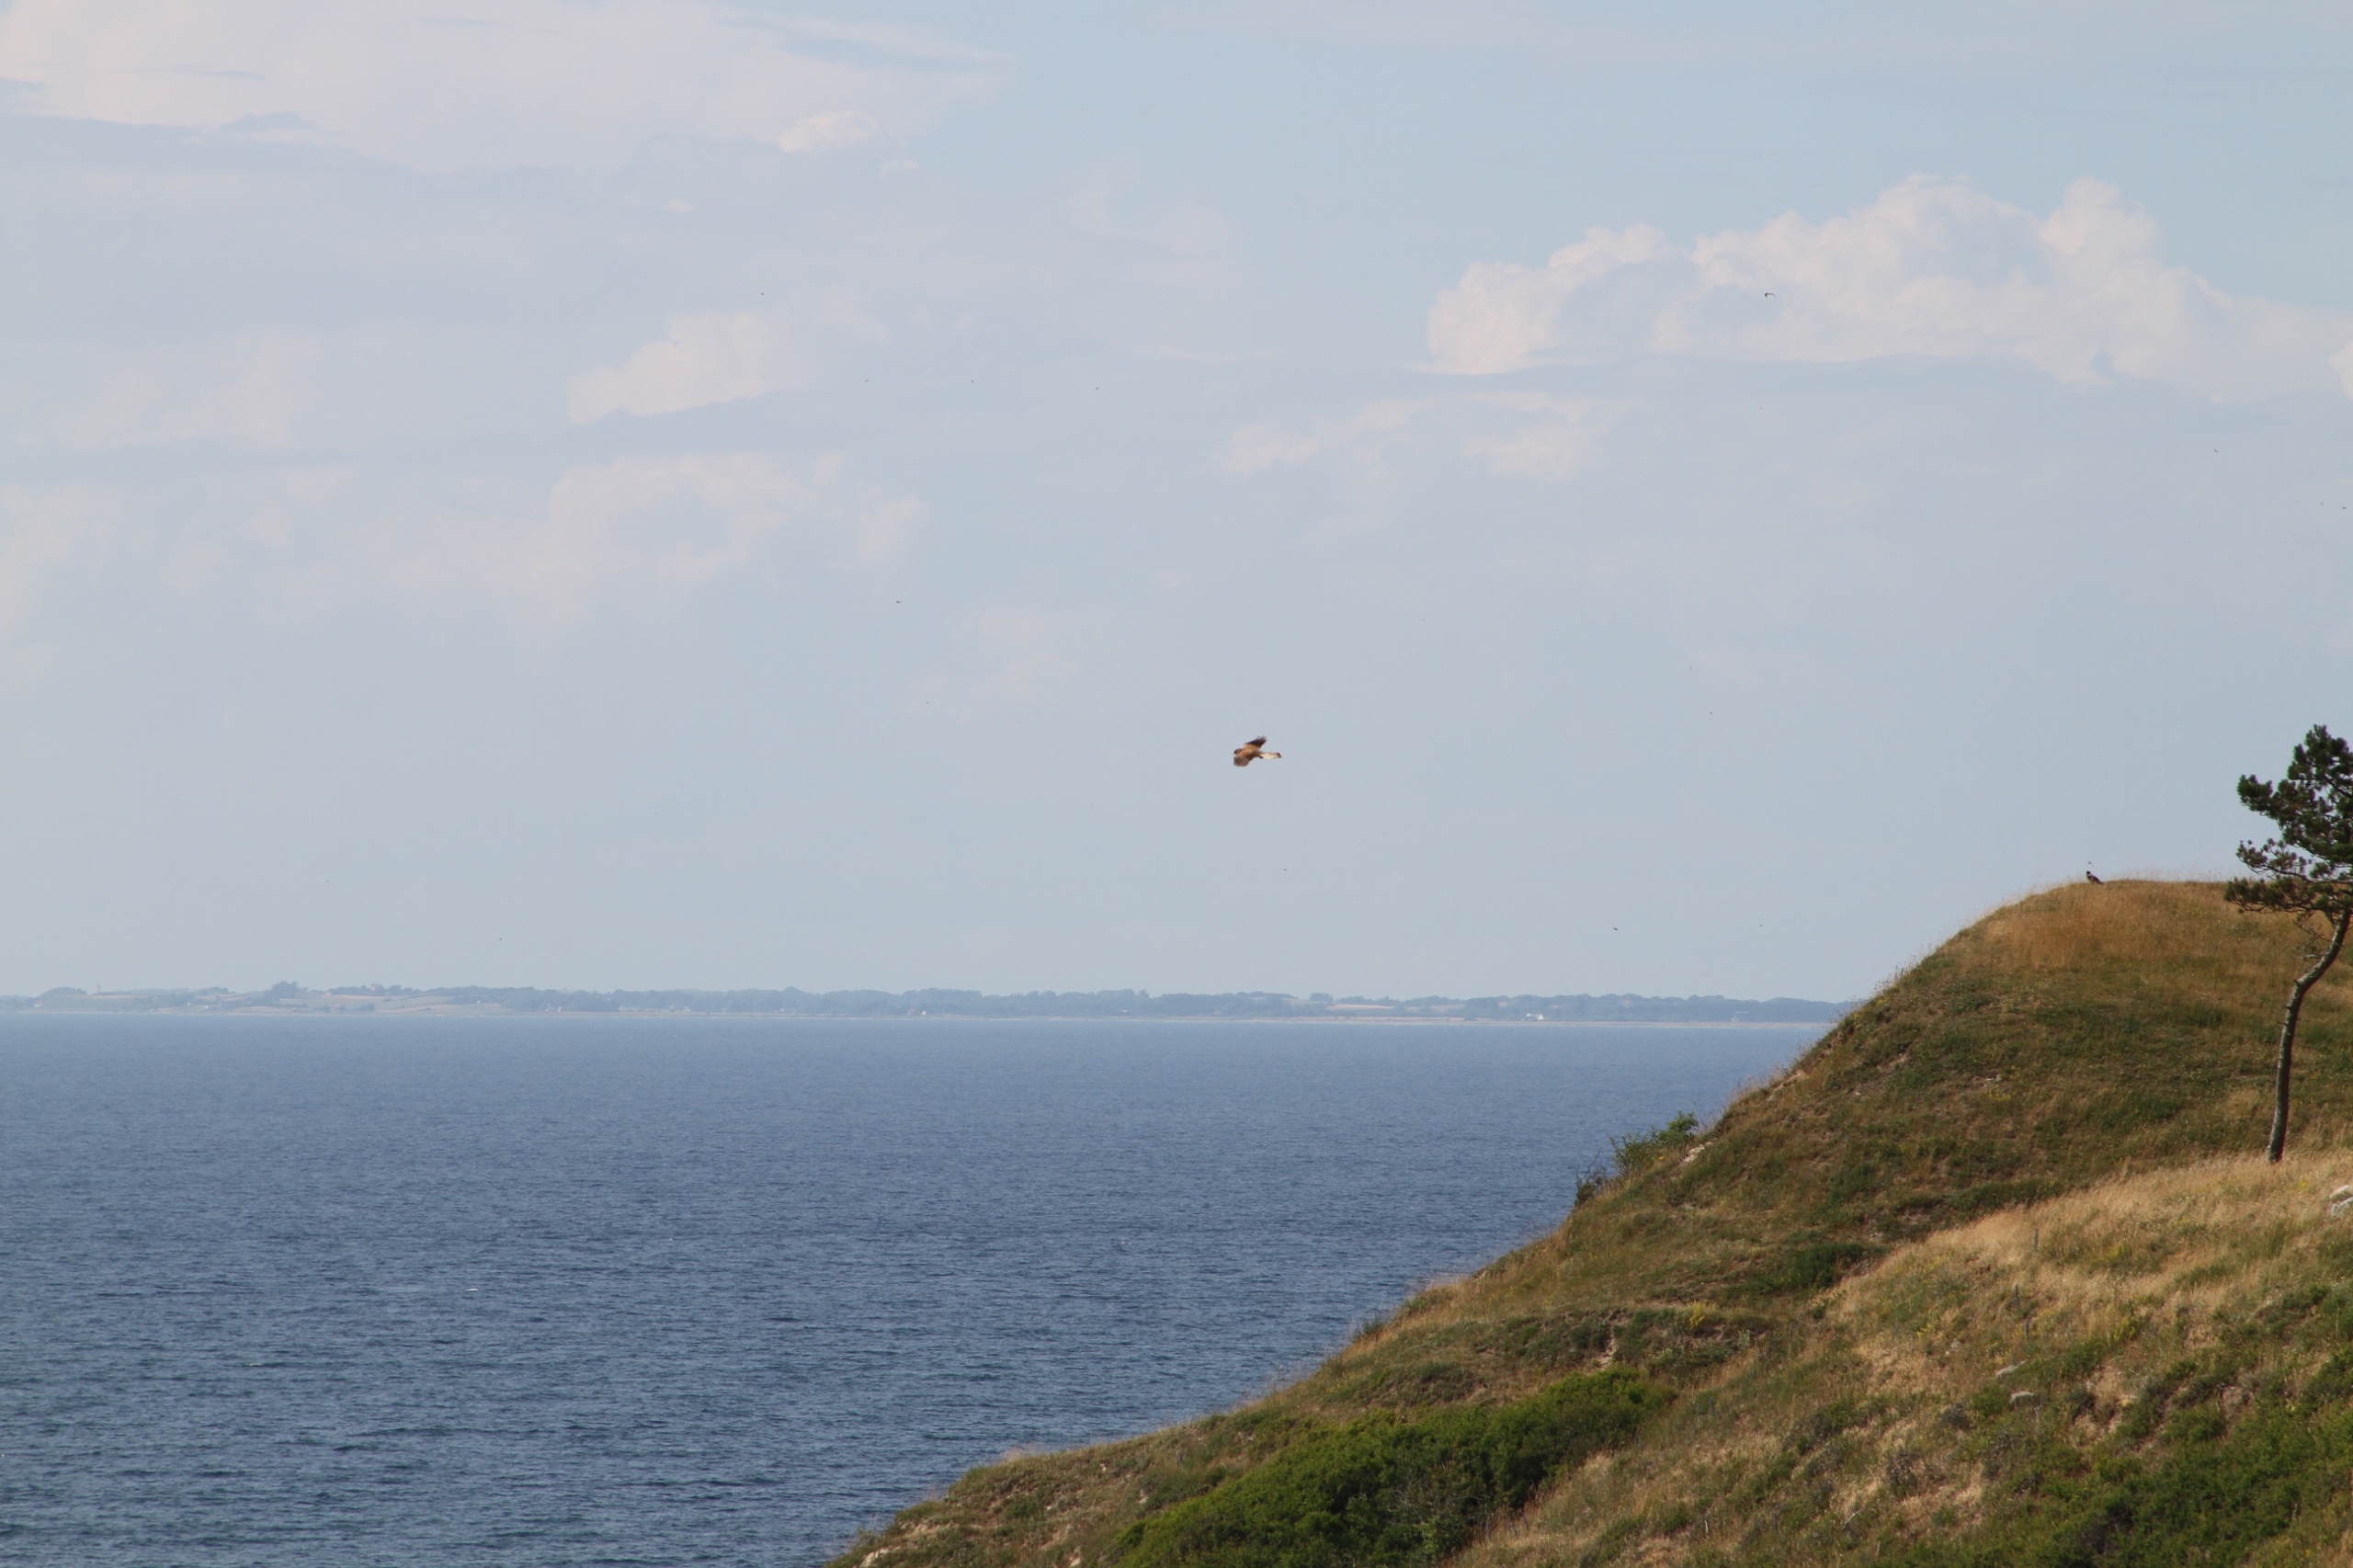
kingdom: Animalia
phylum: Chordata
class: Aves
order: Falconiformes
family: Falconidae
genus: Falco
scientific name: Falco tinnunculus
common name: Tårnfalk
